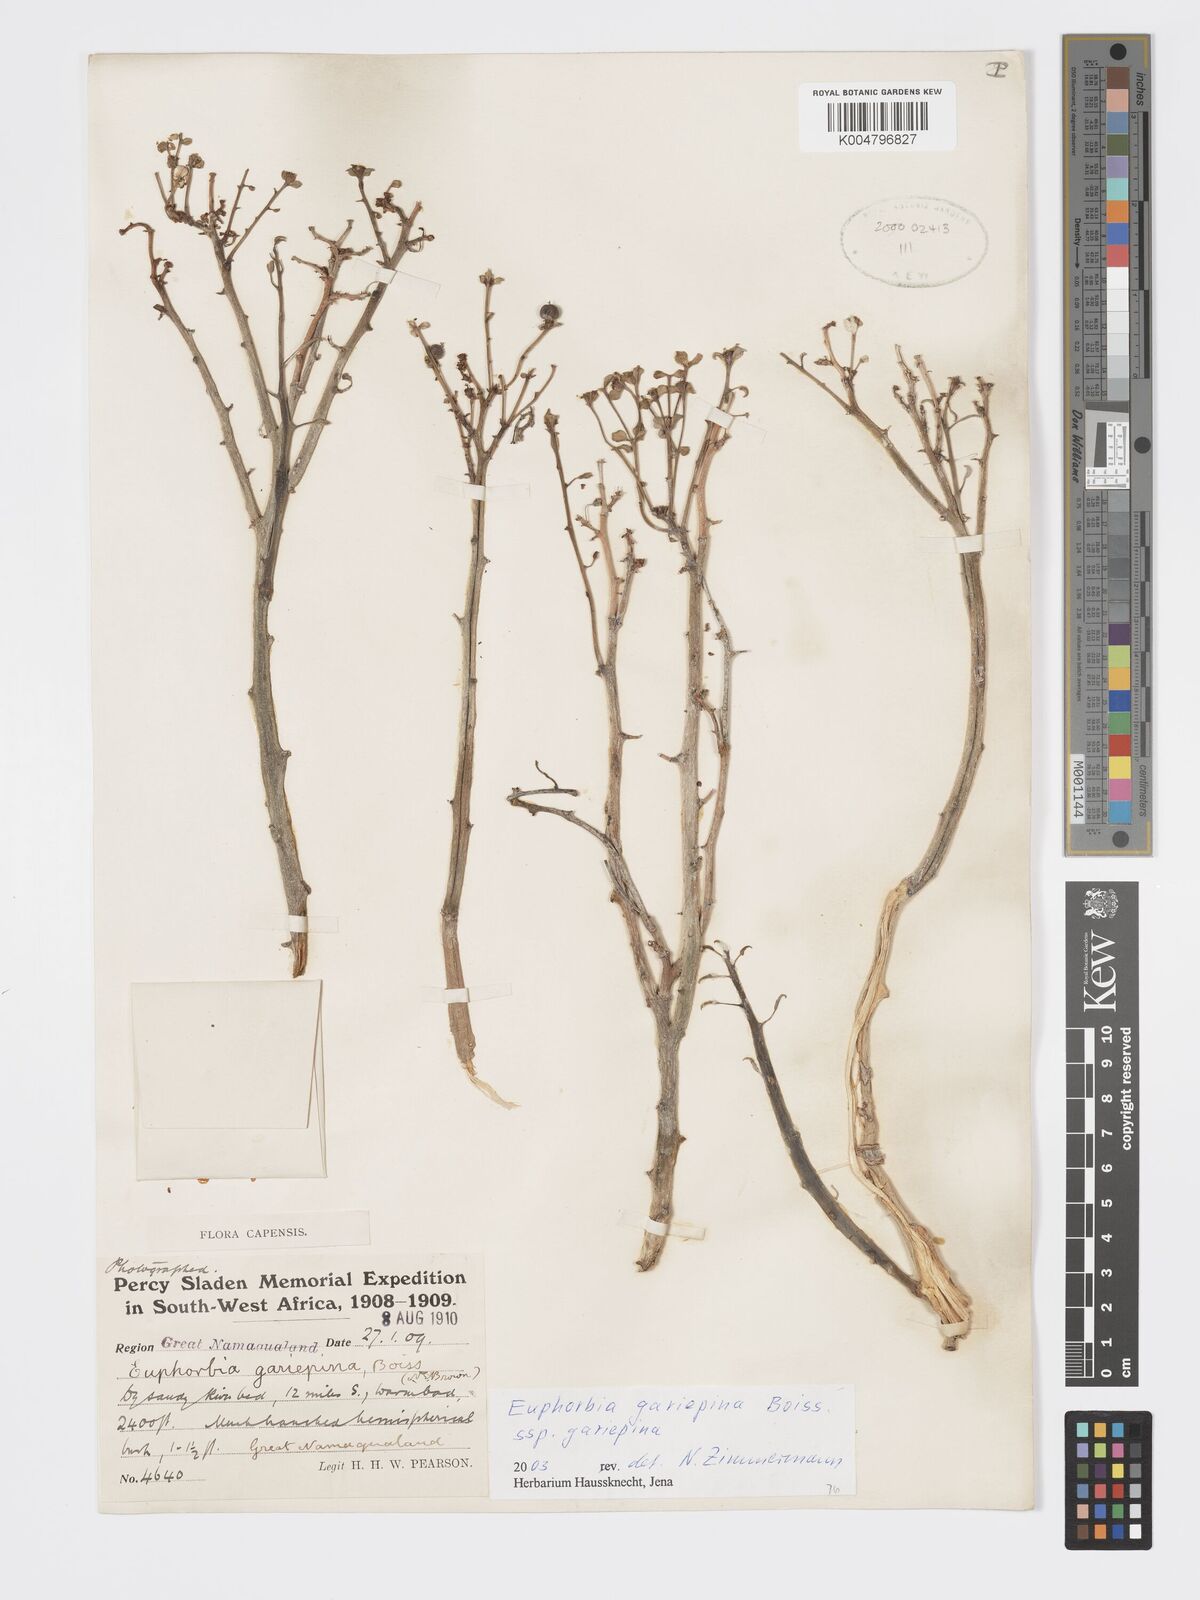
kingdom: Plantae
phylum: Tracheophyta
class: Magnoliopsida
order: Malpighiales
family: Euphorbiaceae
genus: Euphorbia
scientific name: Euphorbia gariepina
